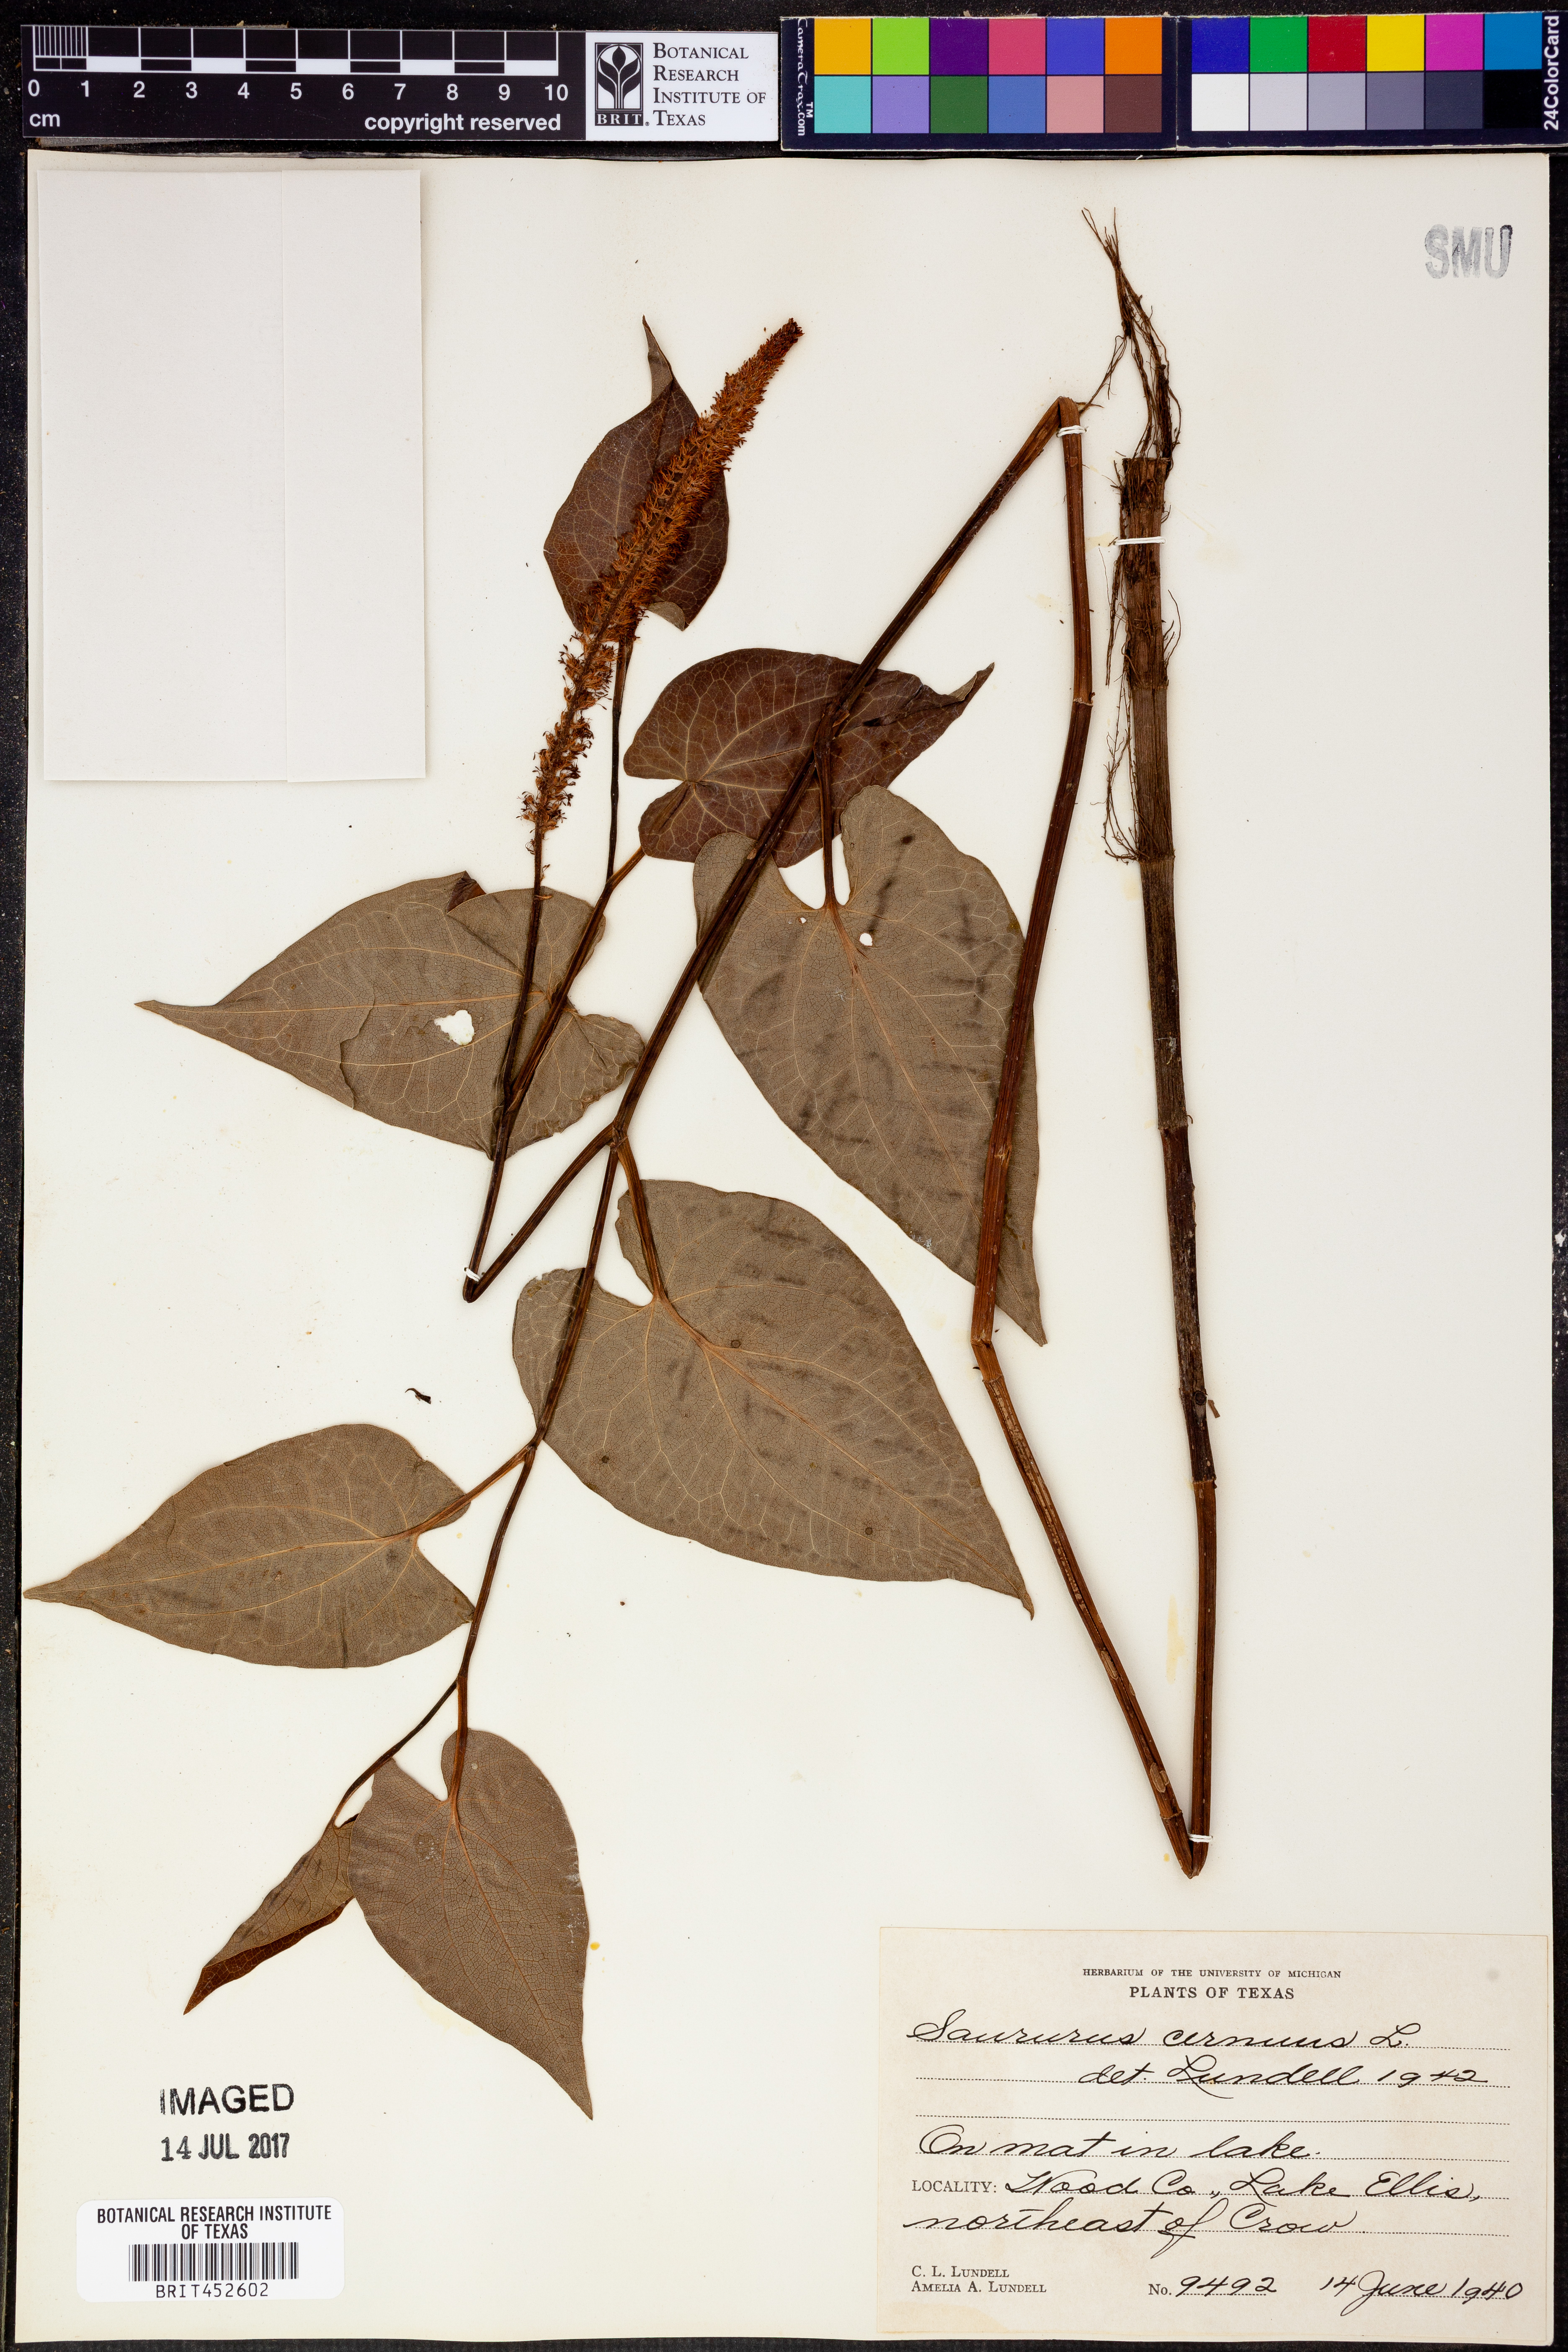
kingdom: Plantae
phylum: Tracheophyta
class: Magnoliopsida
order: Piperales
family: Saururaceae
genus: Saururus
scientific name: Saururus cernuus
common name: Lizard's-tail
